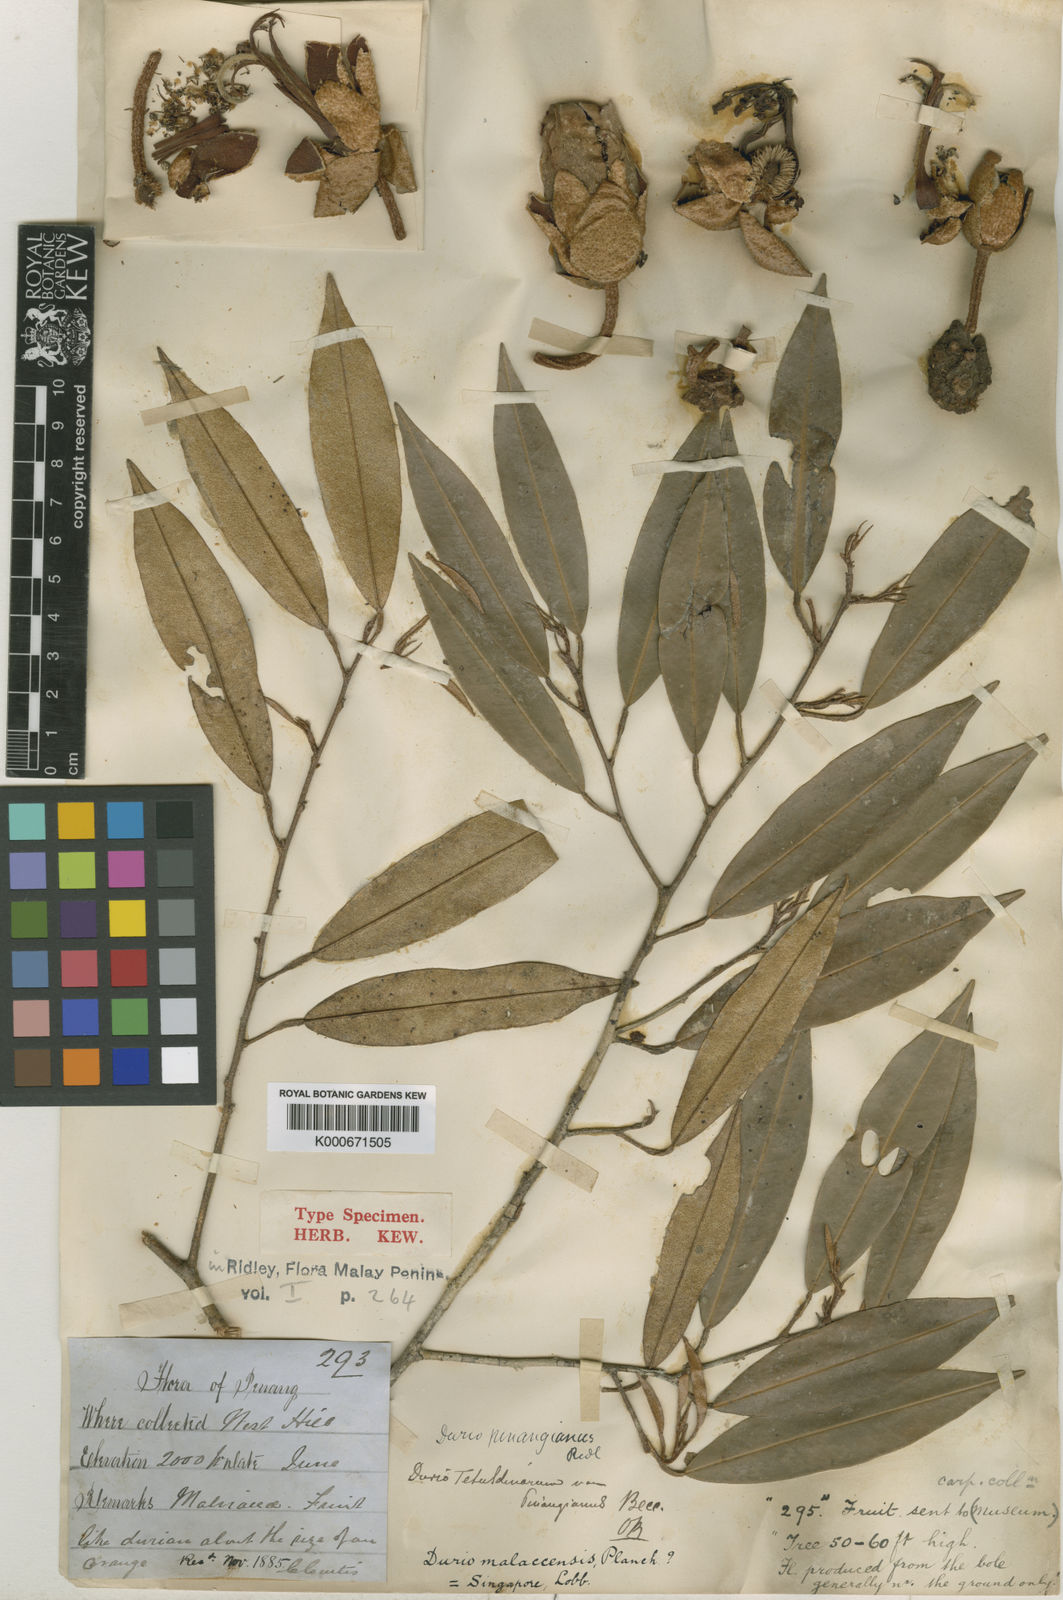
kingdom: Plantae
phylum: Tracheophyta
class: Magnoliopsida
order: Malvales
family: Malvaceae
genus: Durio
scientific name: Durio pinangianus
